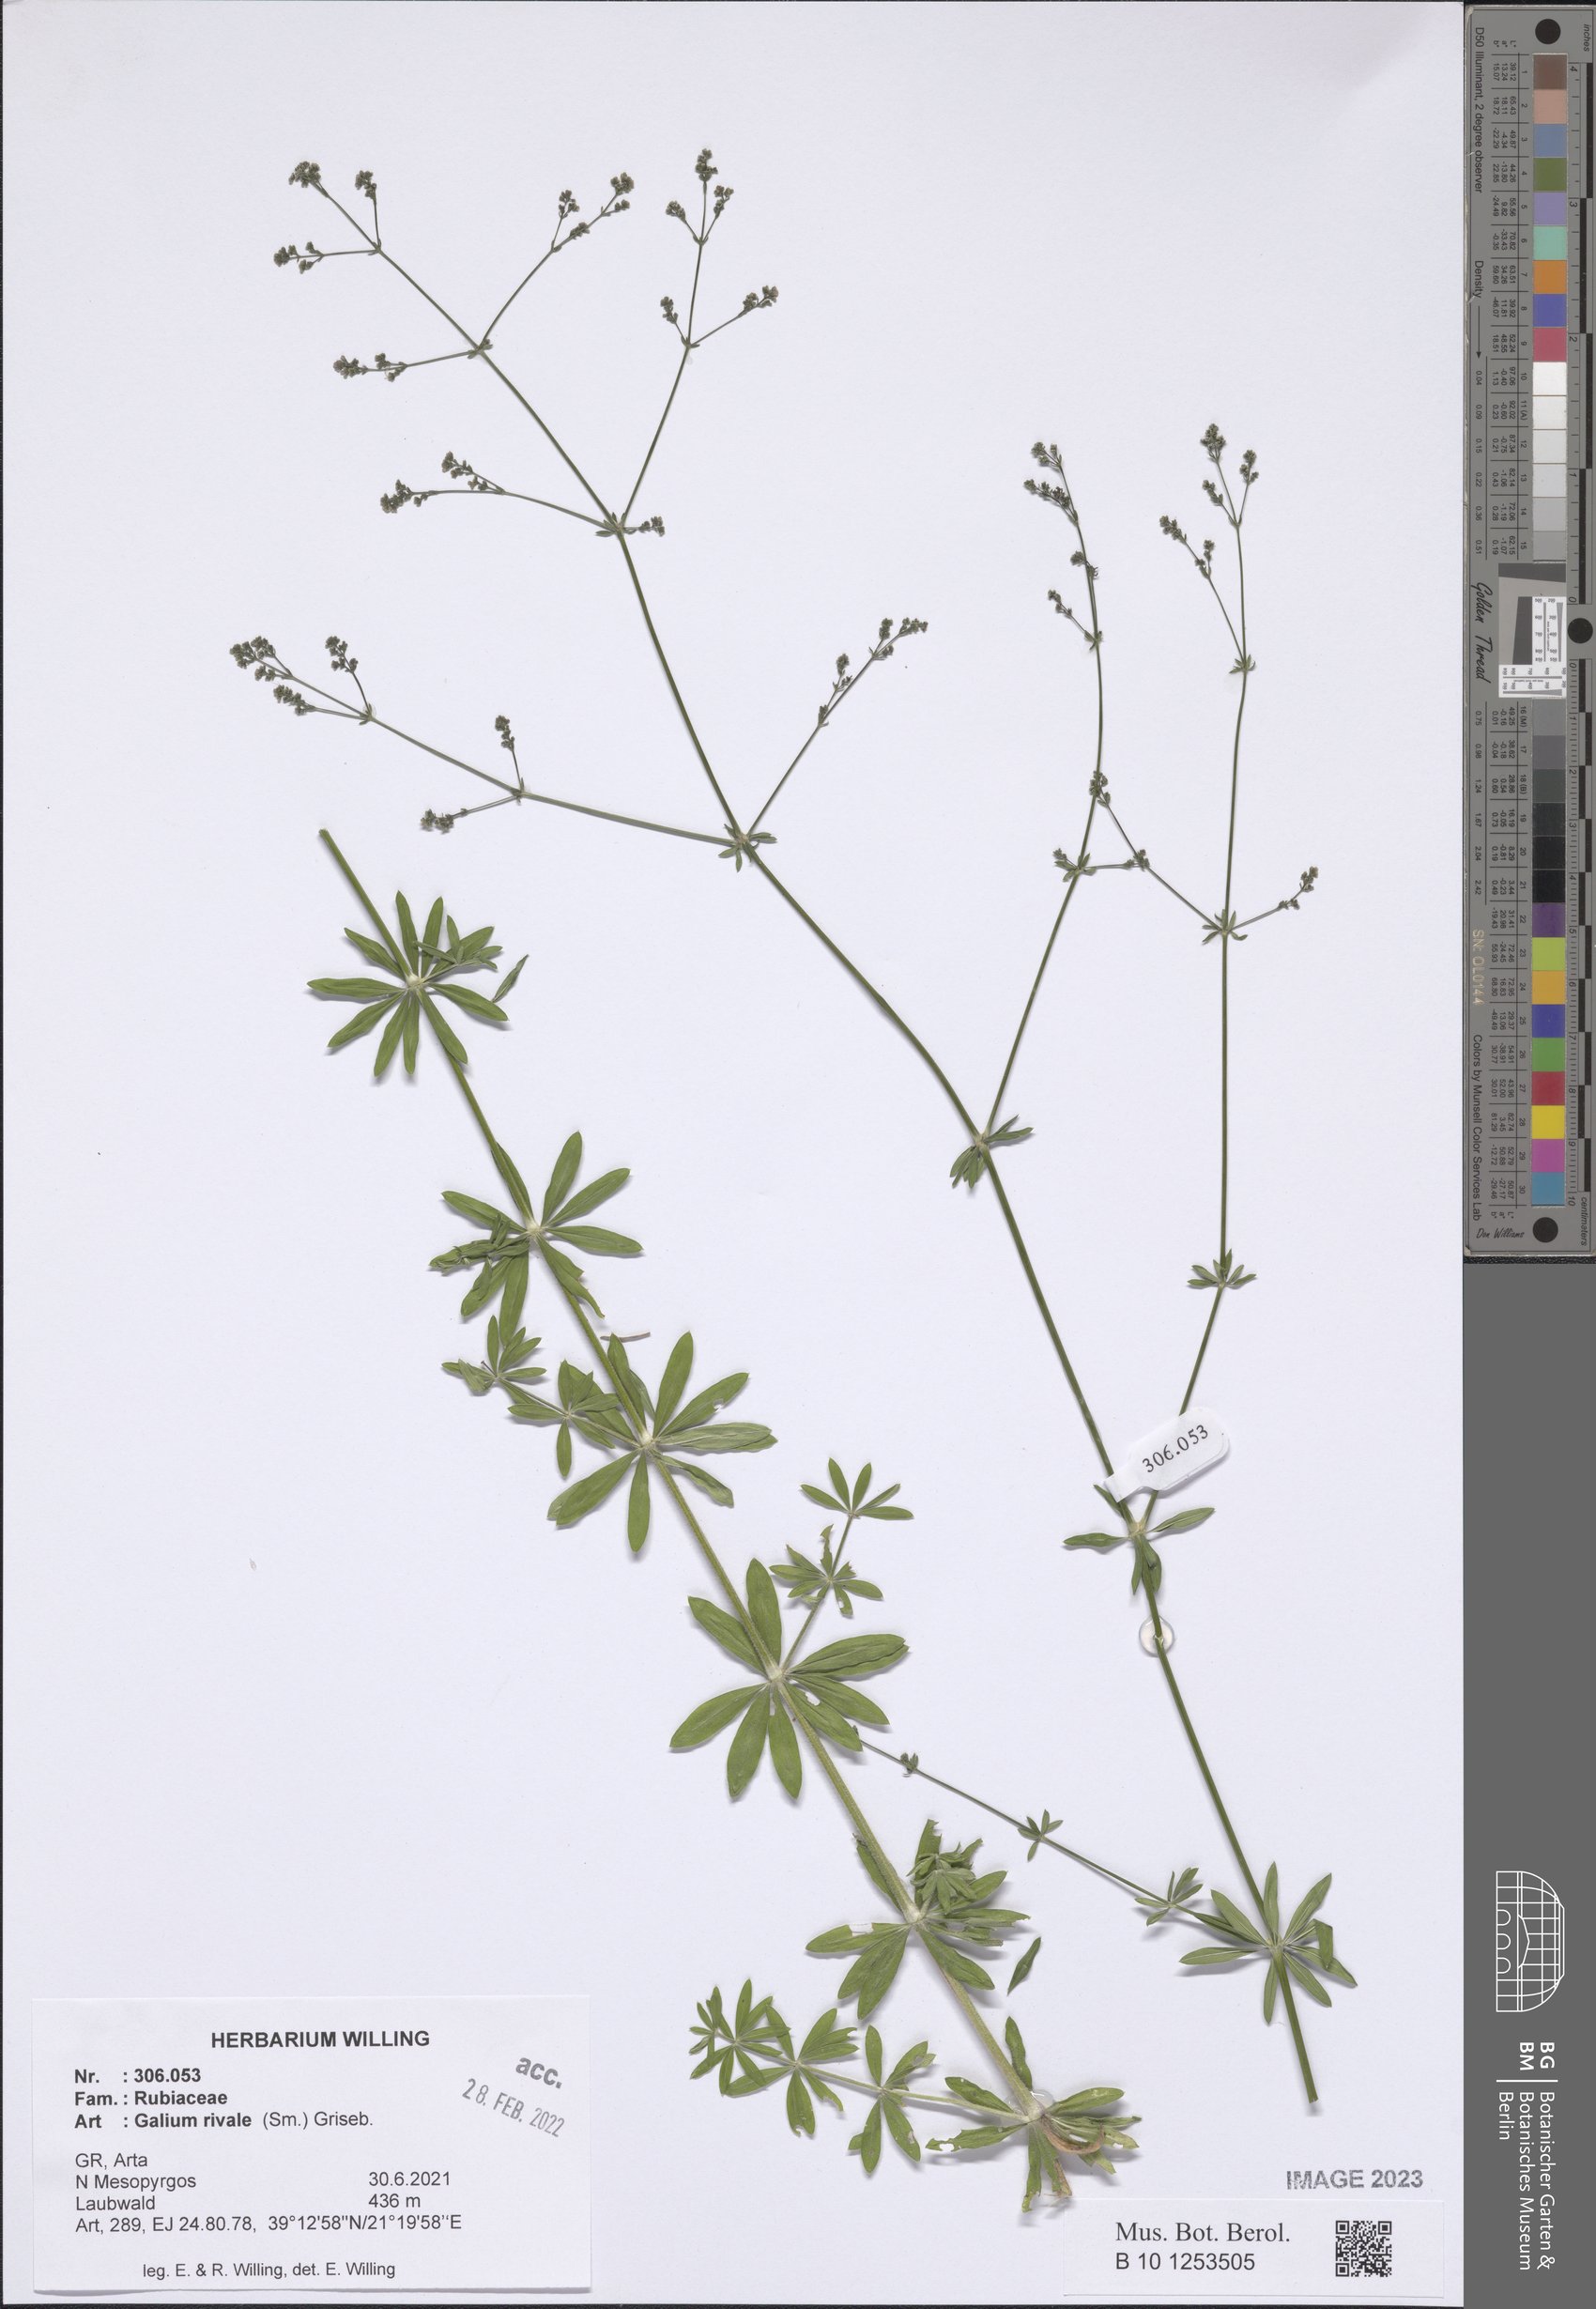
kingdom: Plantae
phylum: Tracheophyta
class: Magnoliopsida
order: Gentianales
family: Rubiaceae
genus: Galium
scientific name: Galium rivale
